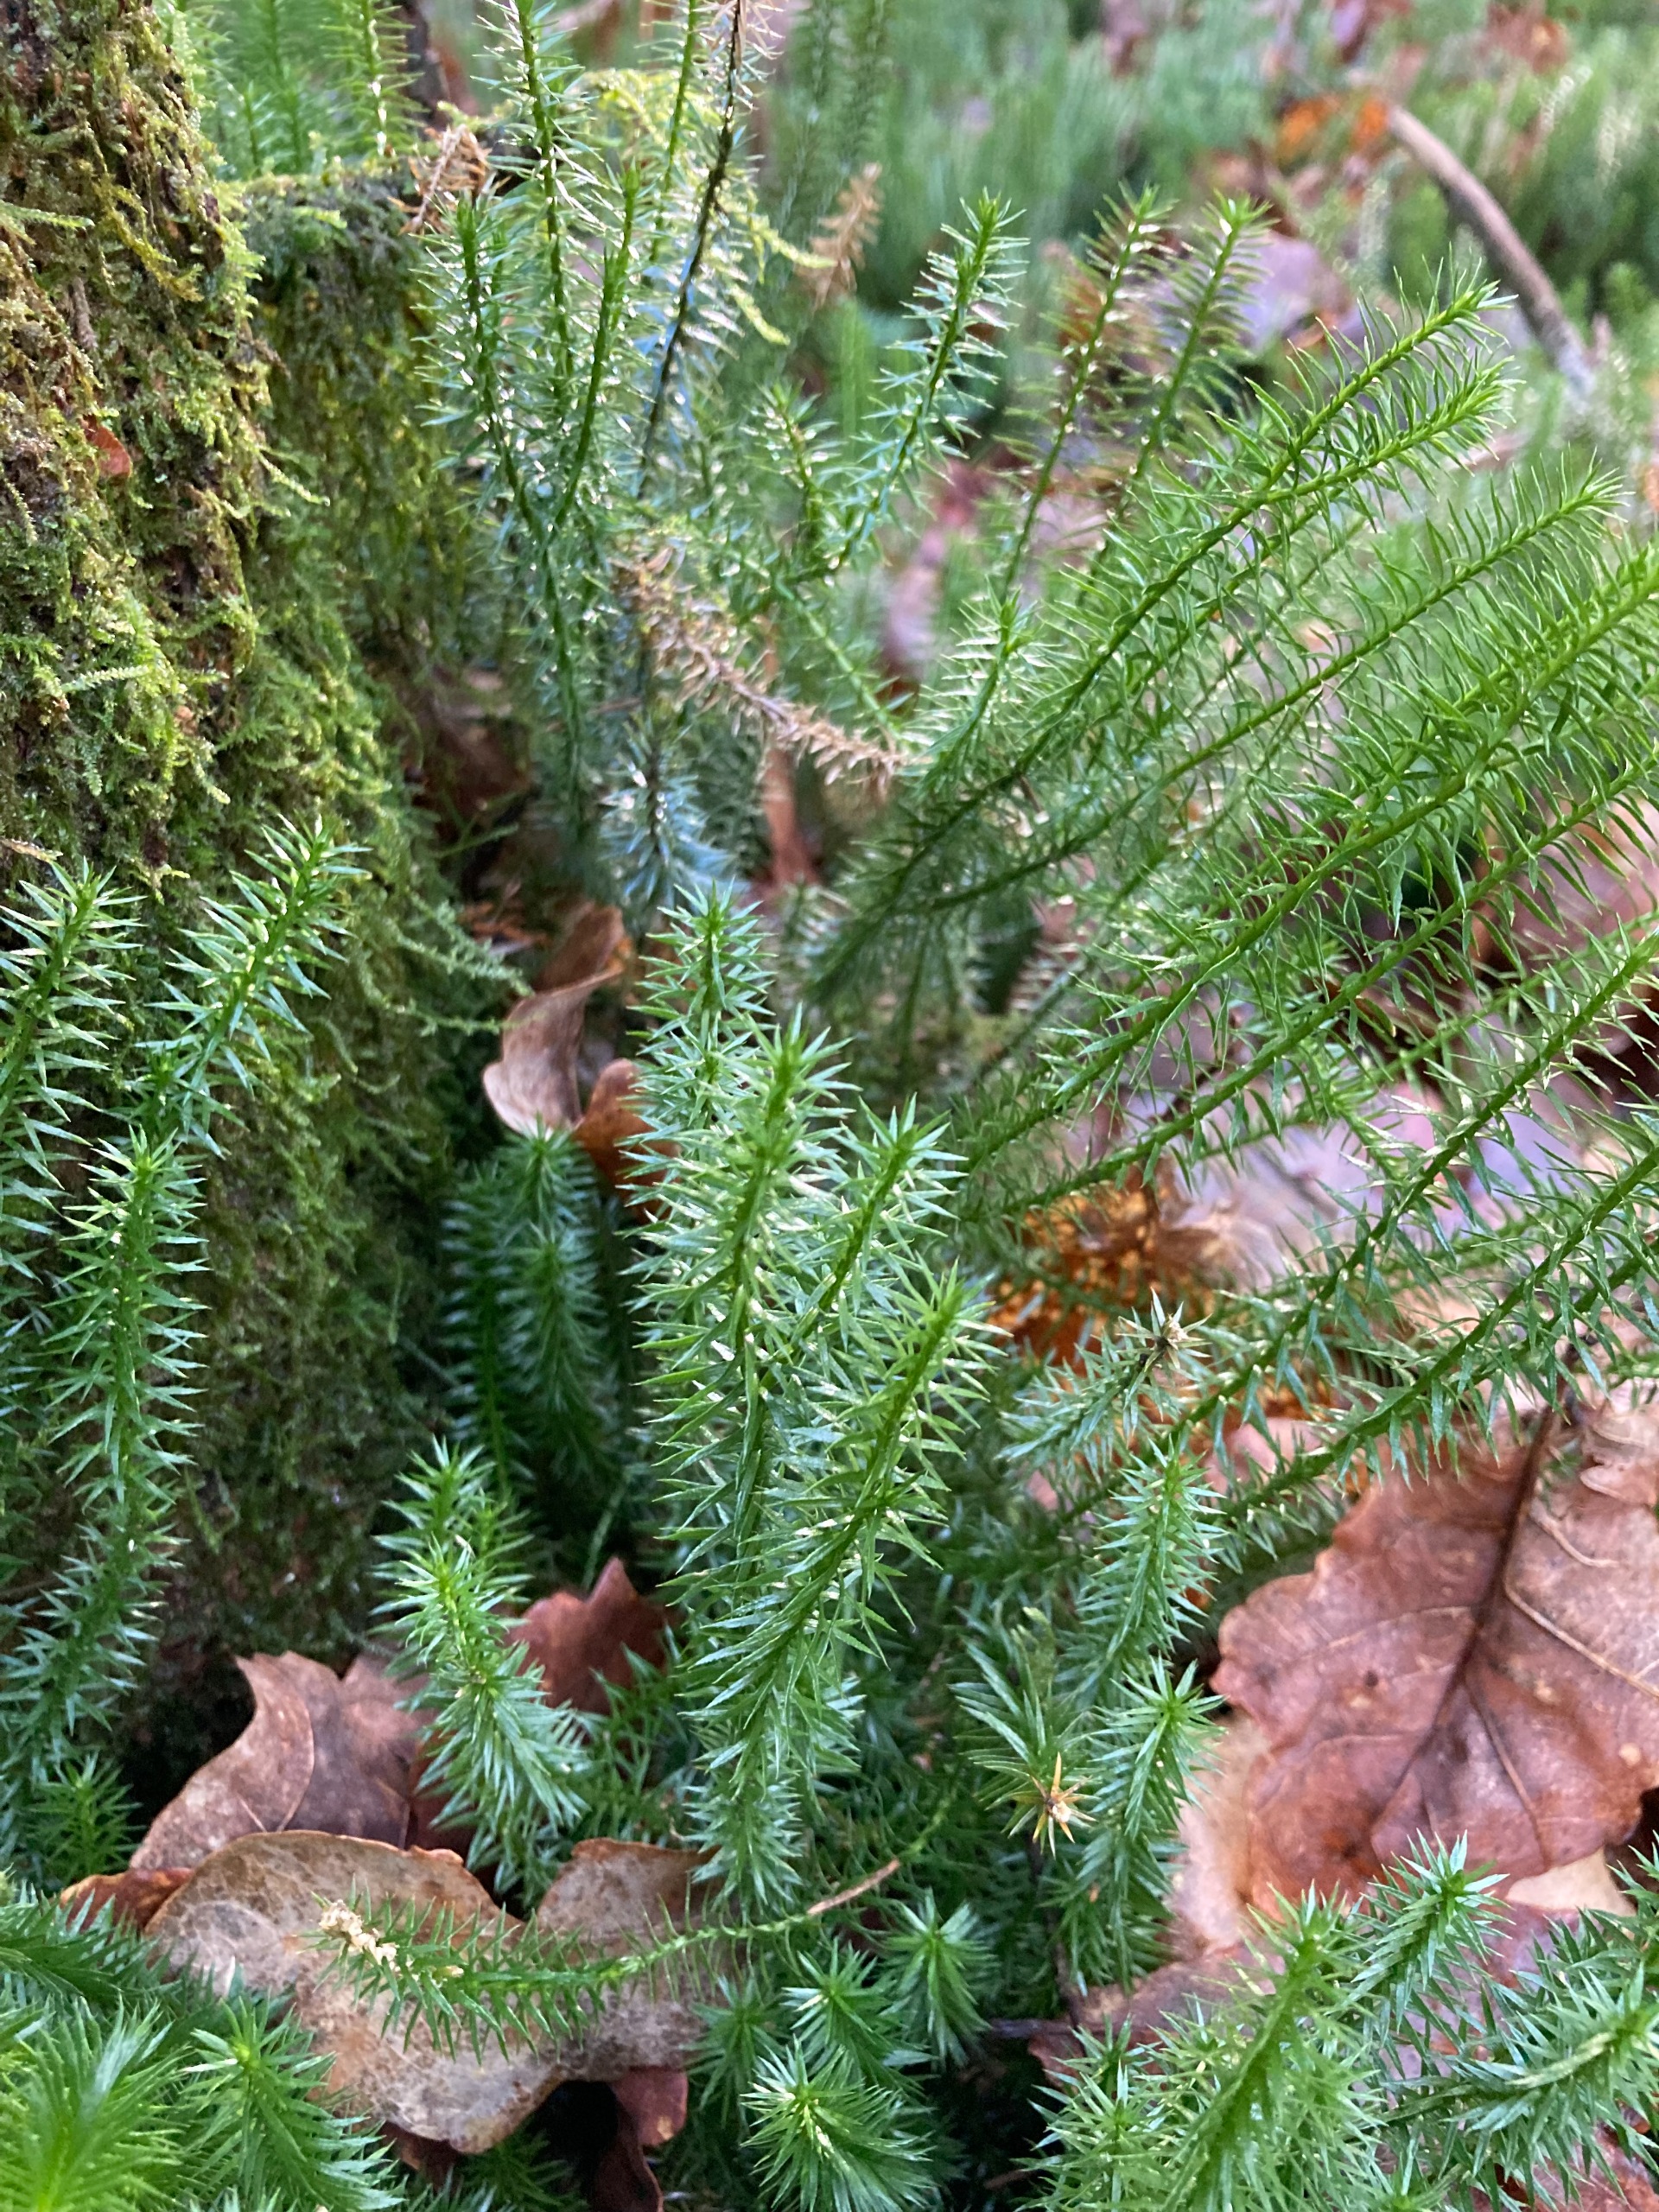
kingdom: Plantae
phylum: Tracheophyta
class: Lycopodiopsida
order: Lycopodiales
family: Lycopodiaceae
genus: Spinulum
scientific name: Spinulum annotinum
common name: Femradet ulvefod
